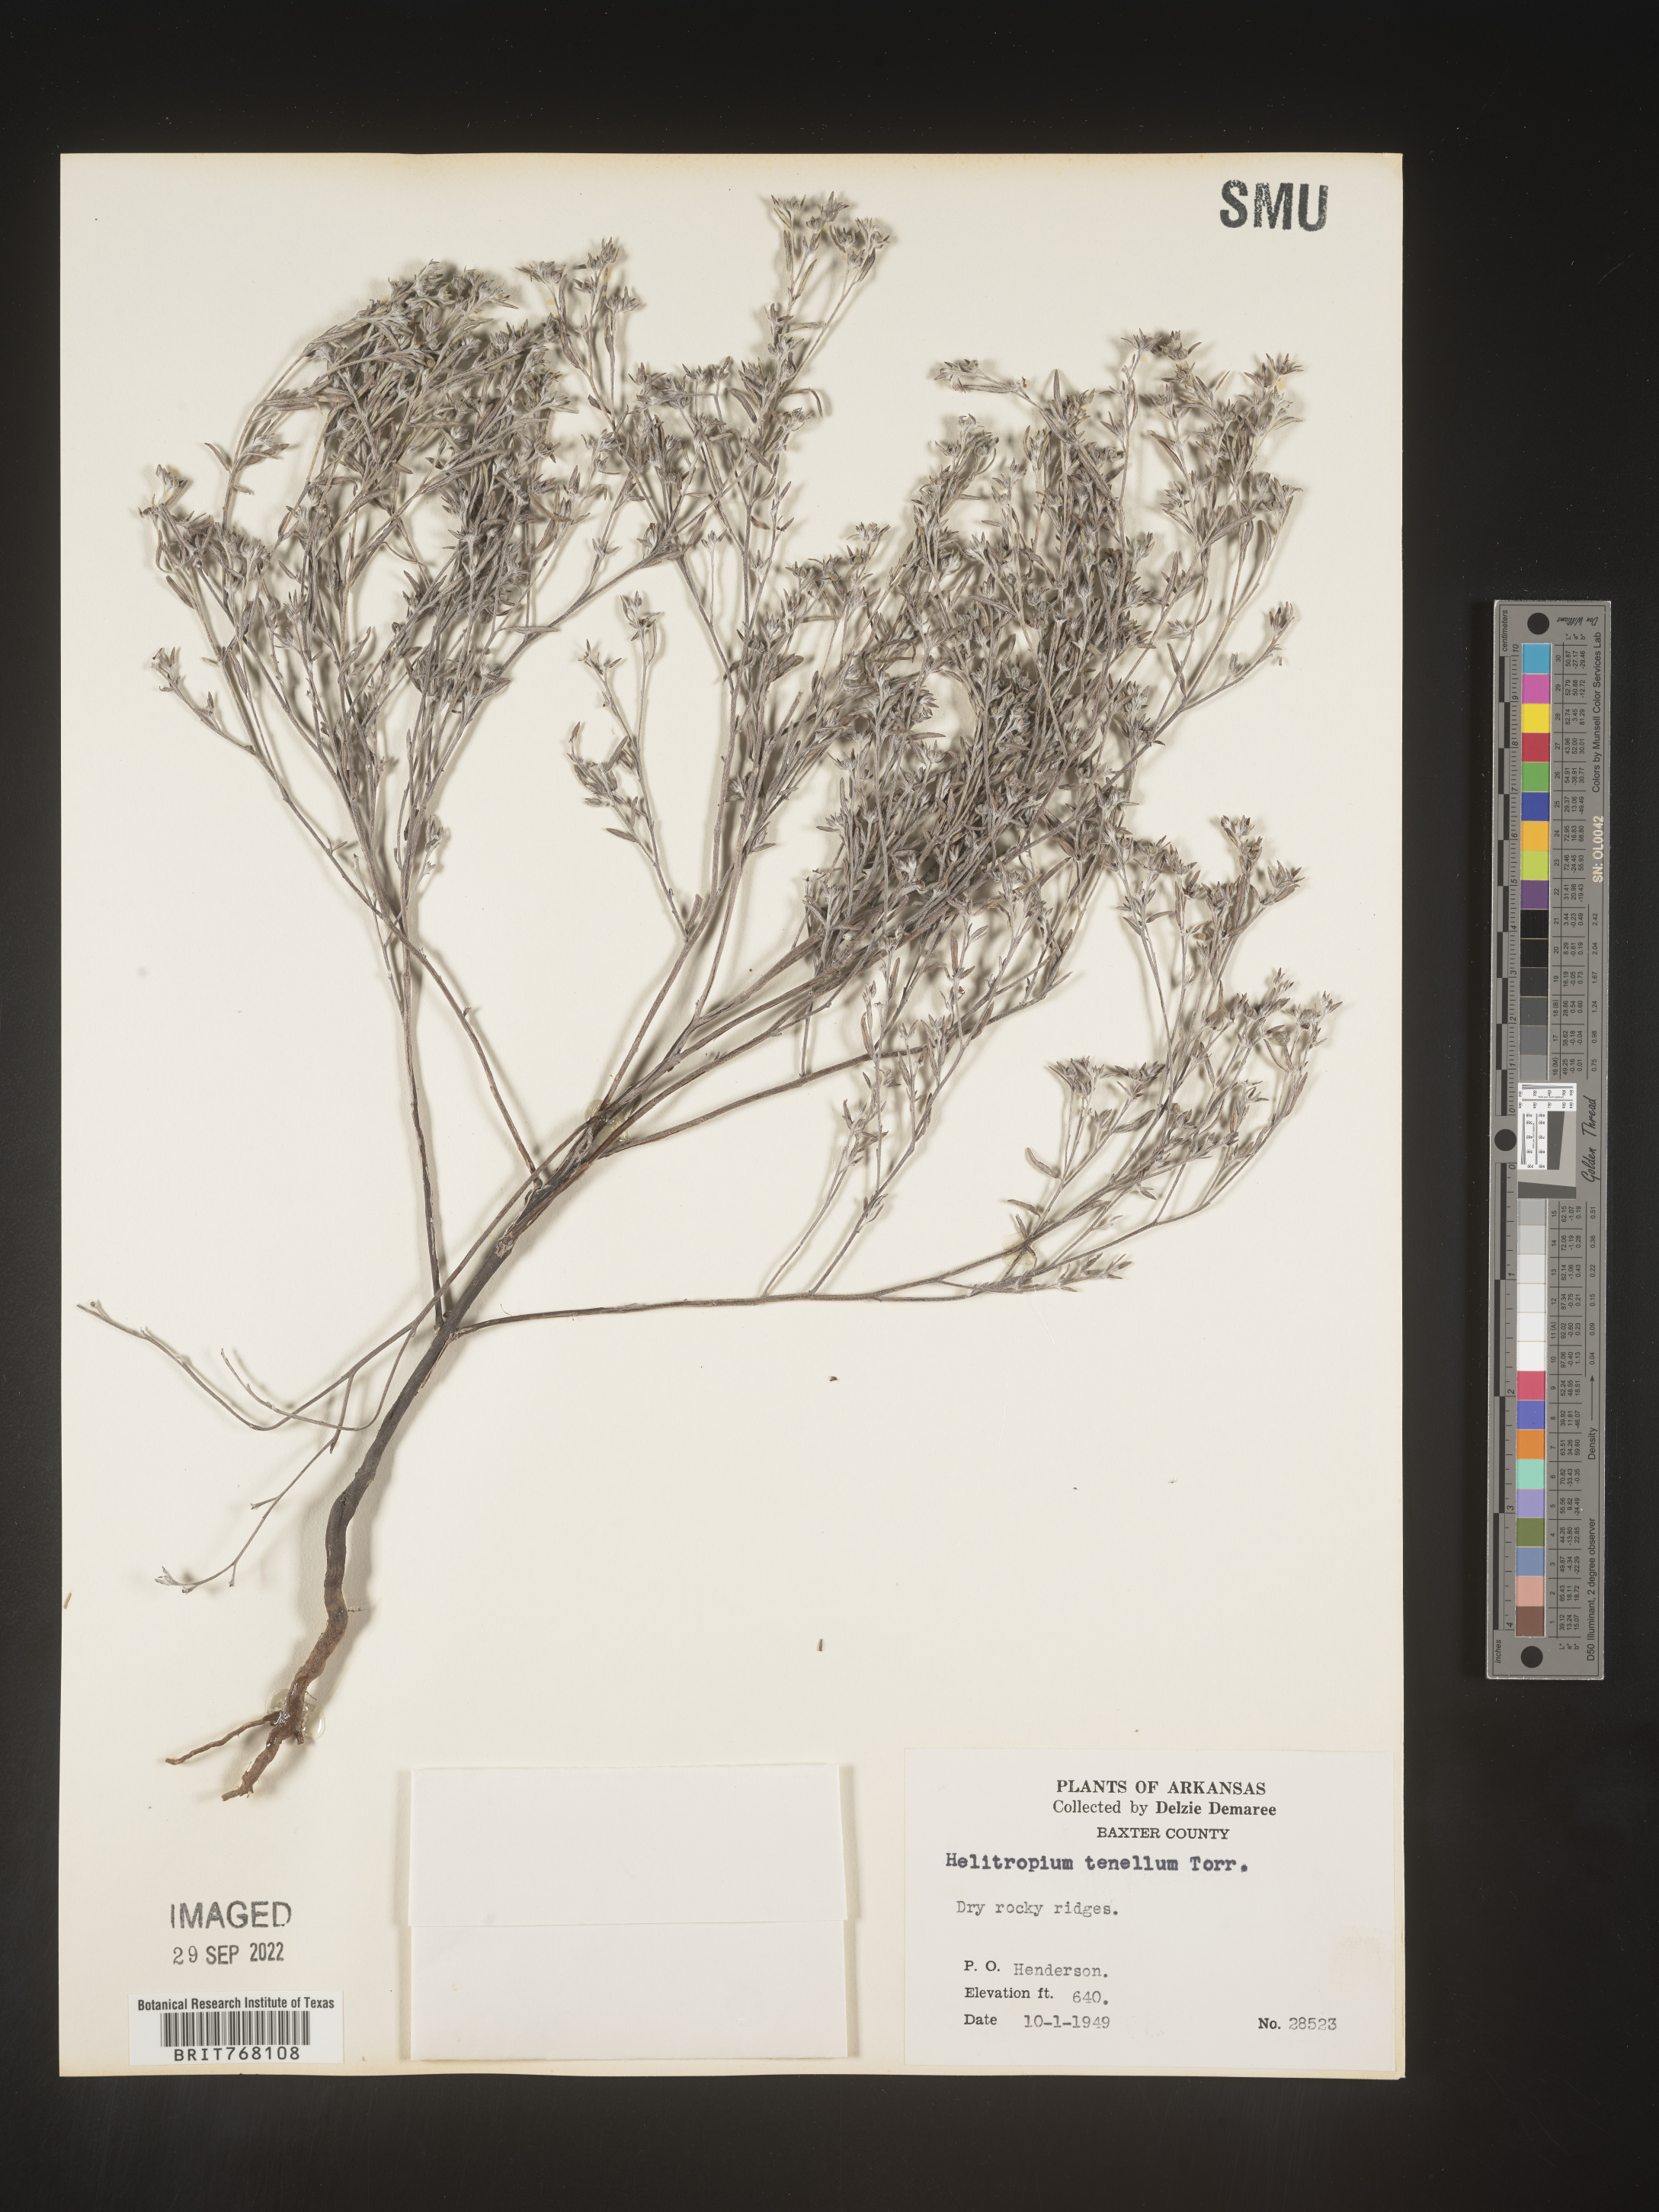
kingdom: Plantae
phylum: Tracheophyta
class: Magnoliopsida
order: Boraginales
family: Heliotropiaceae
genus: Euploca
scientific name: Euploca tenella
